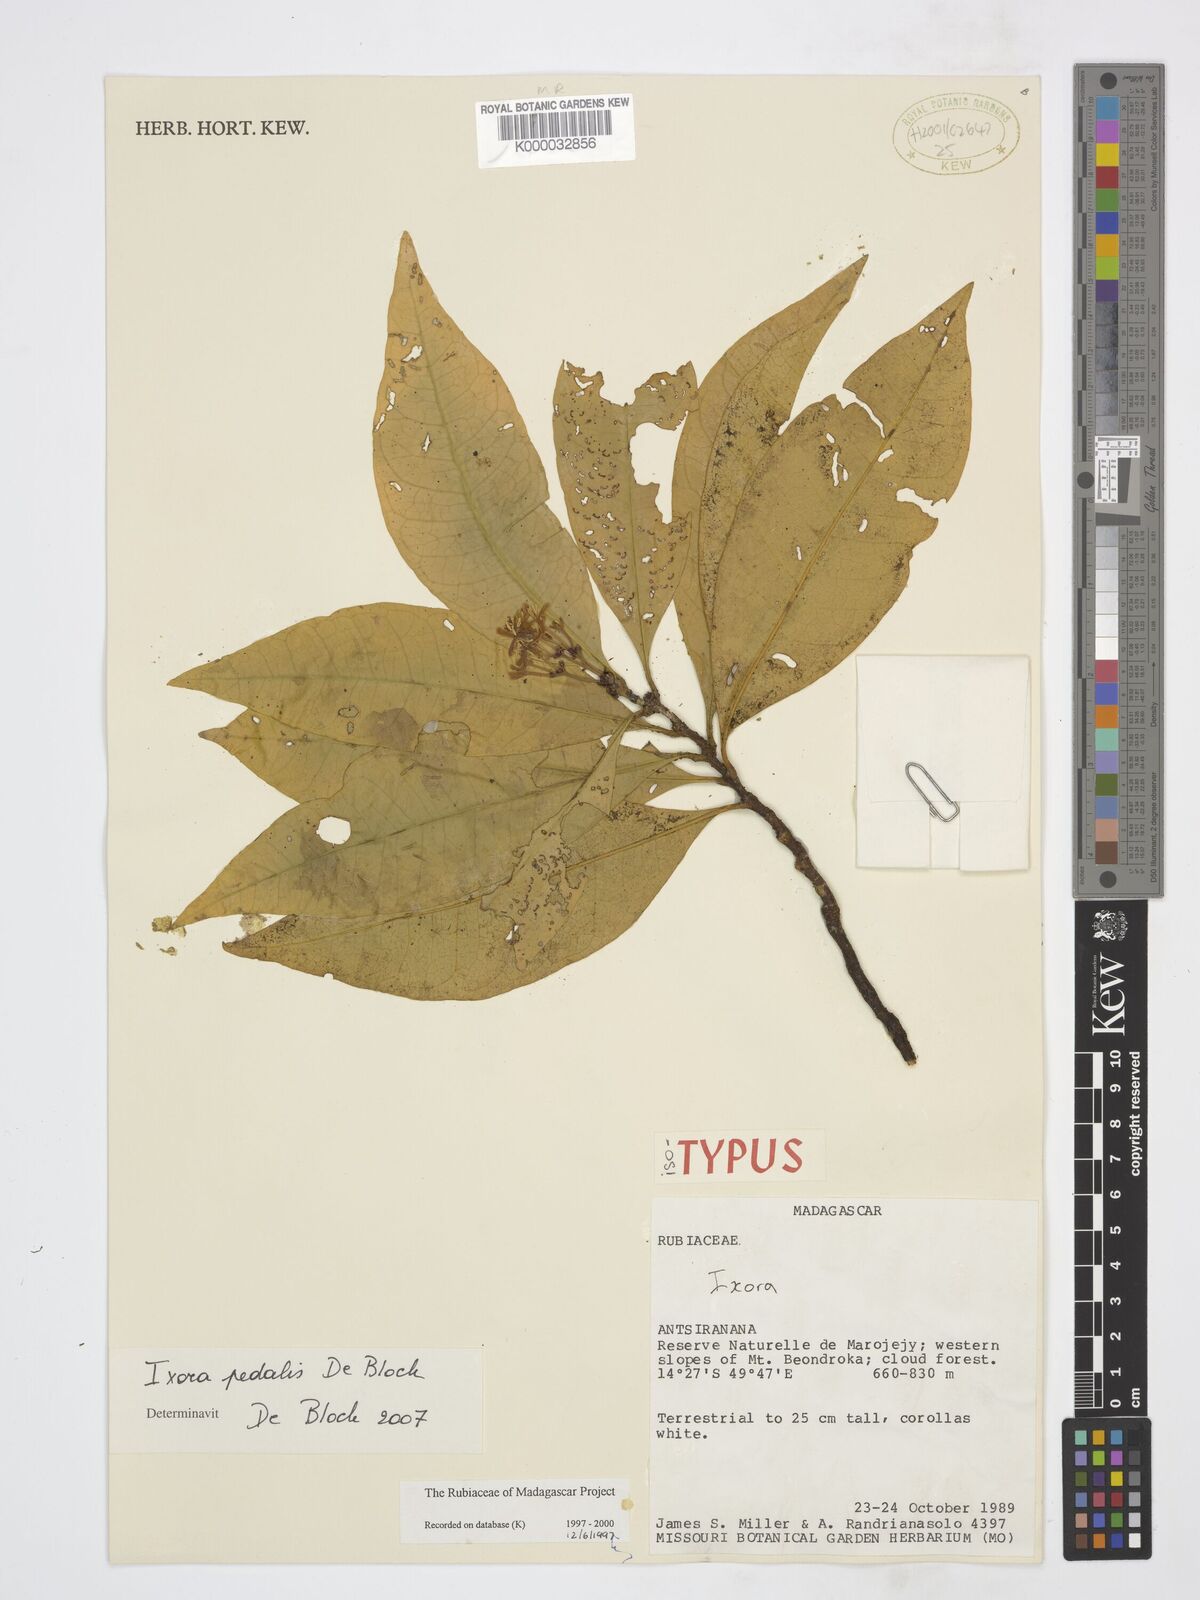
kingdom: Plantae
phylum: Tracheophyta
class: Magnoliopsida
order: Gentianales
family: Rubiaceae
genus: Ixora
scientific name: Ixora pedalis
